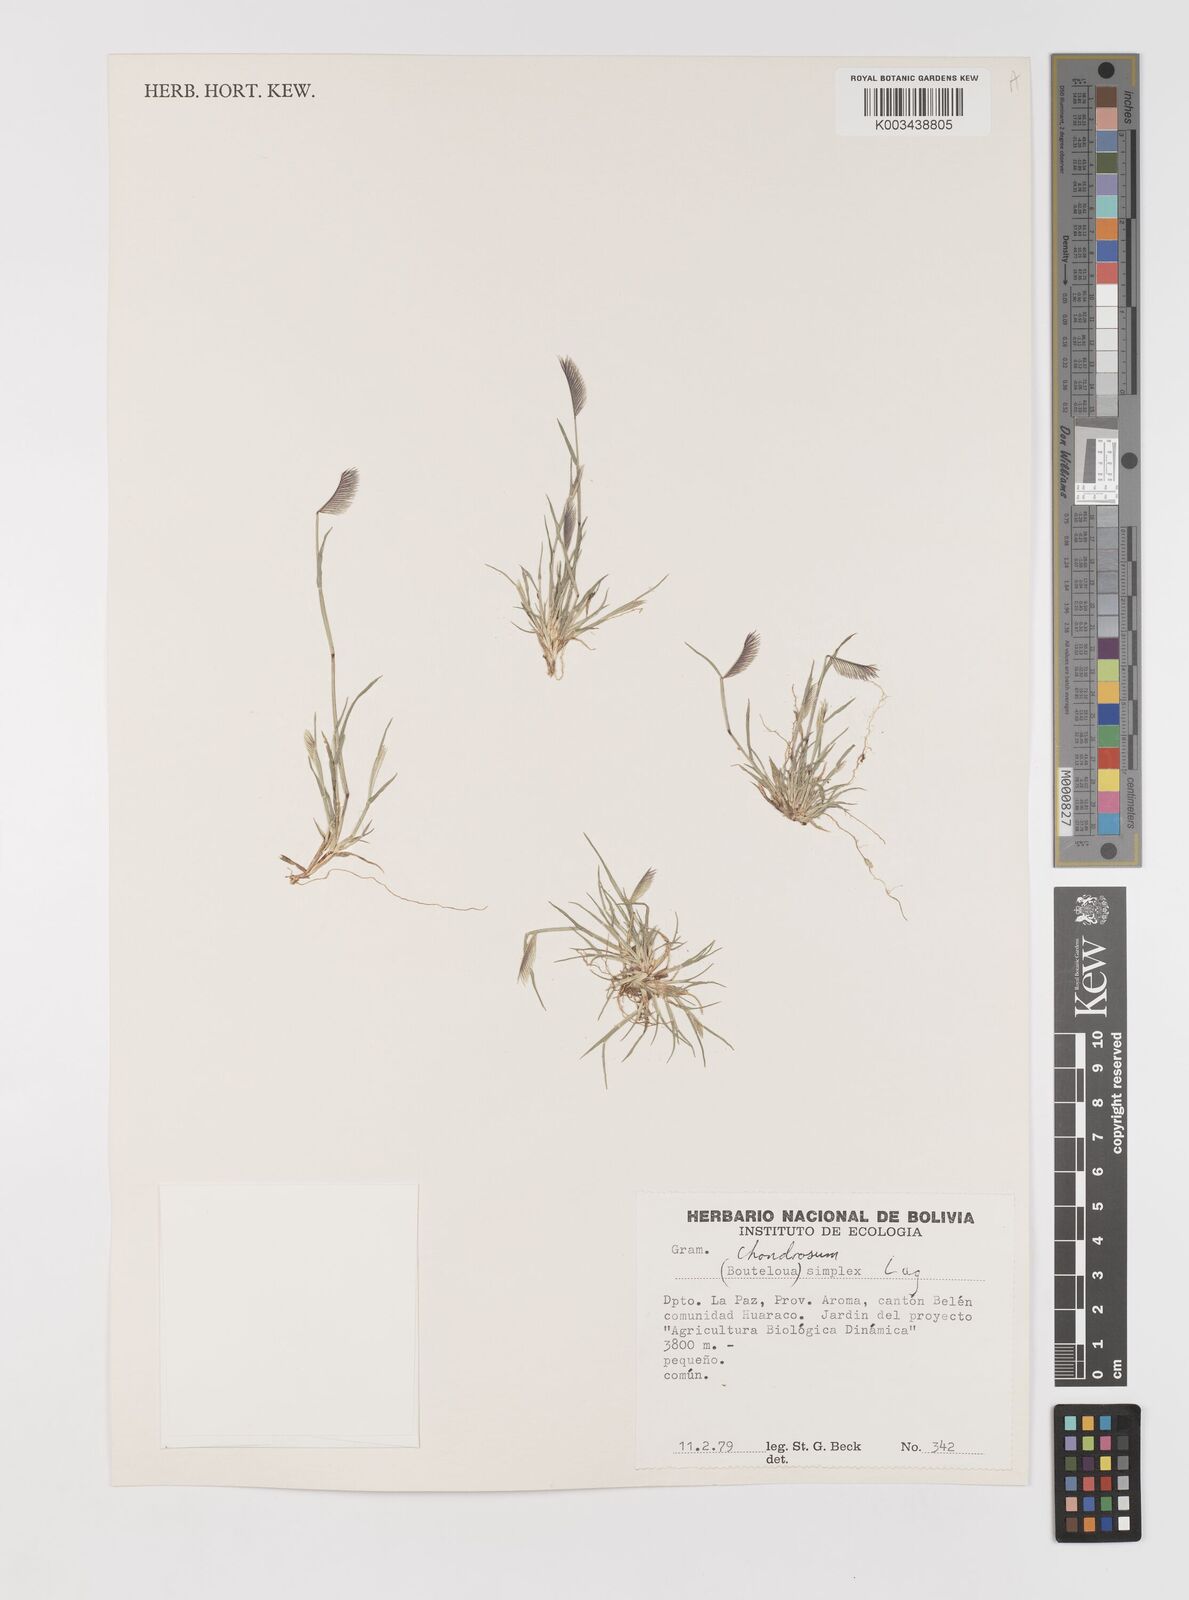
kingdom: Plantae
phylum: Tracheophyta
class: Liliopsida
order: Poales
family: Poaceae
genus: Bouteloua
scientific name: Bouteloua simplex
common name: Mat grama
